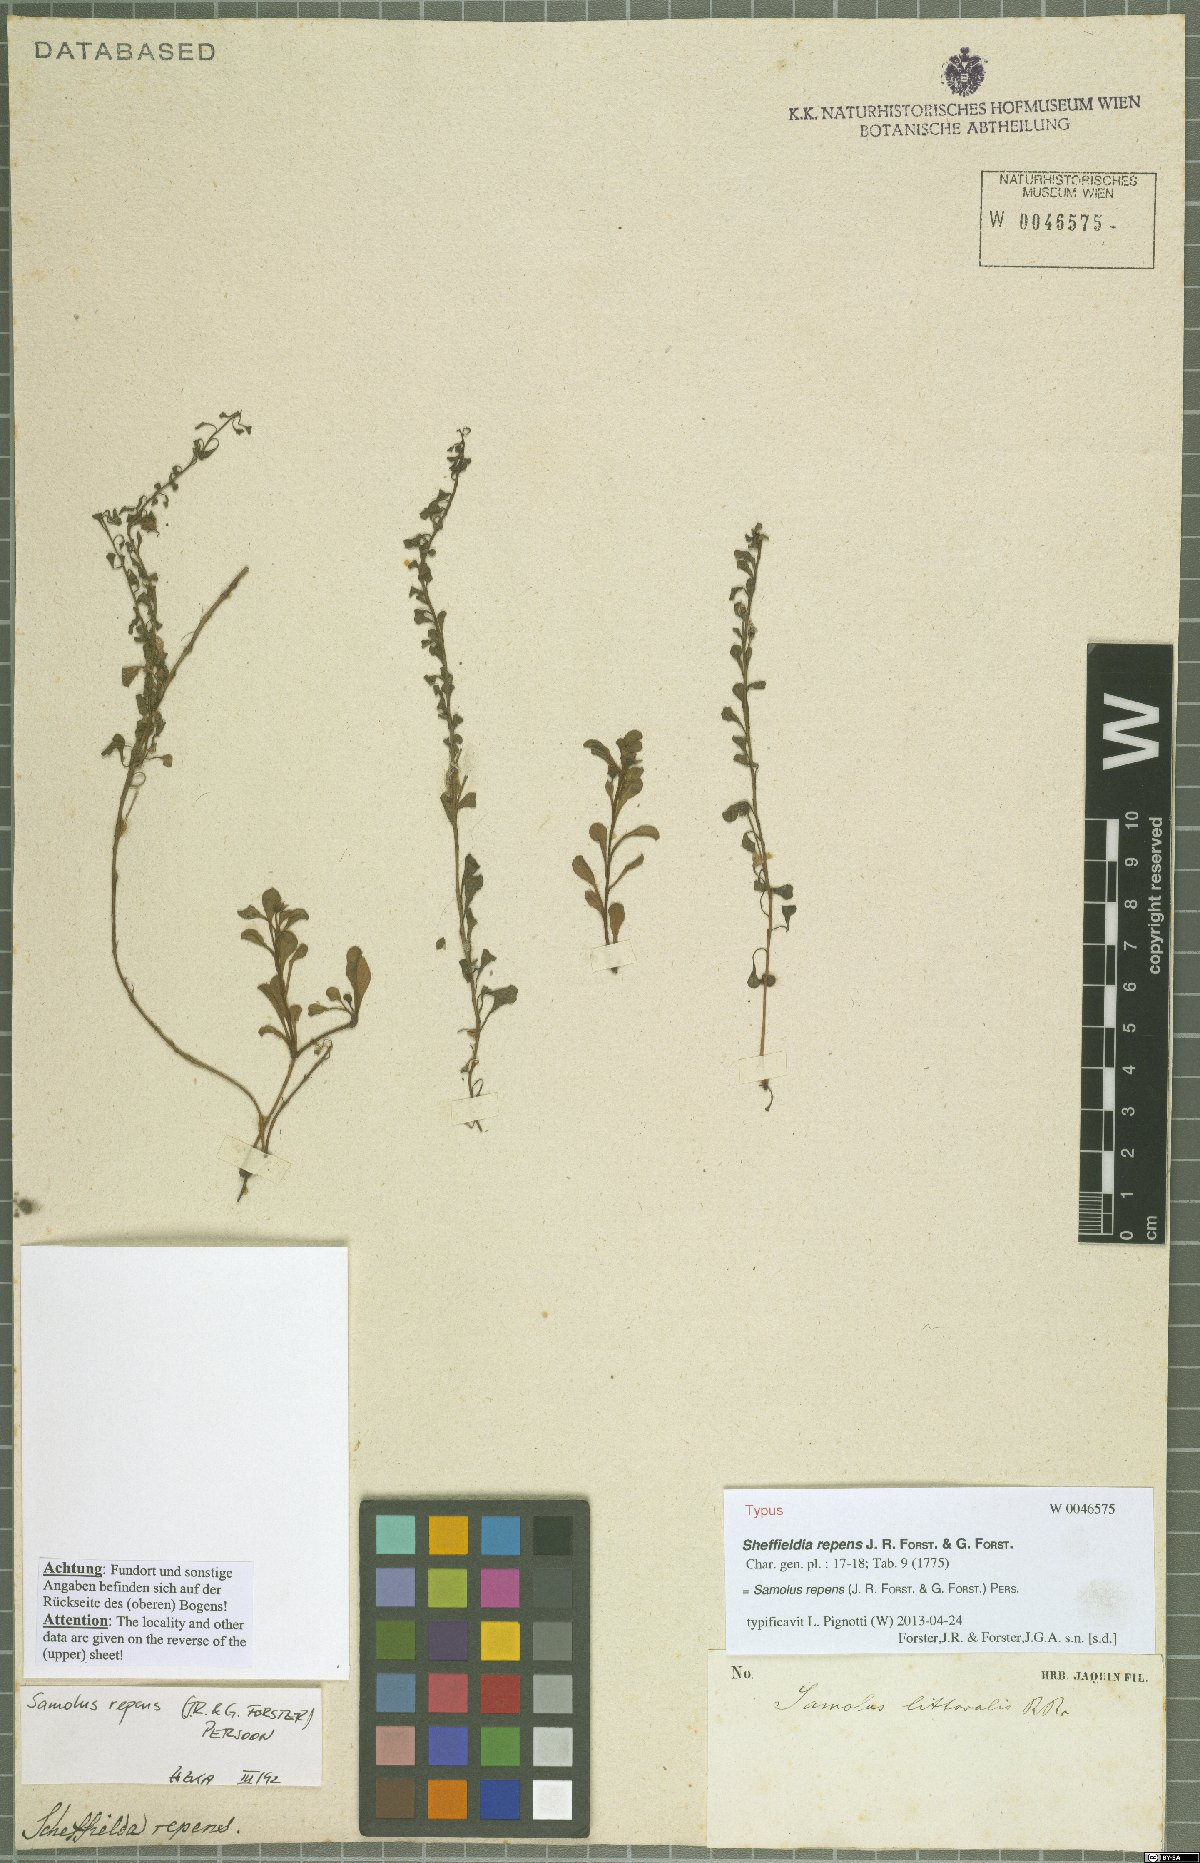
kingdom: Plantae
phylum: Tracheophyta
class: Magnoliopsida
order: Ericales
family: Primulaceae
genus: Samolus
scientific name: Samolus repens
